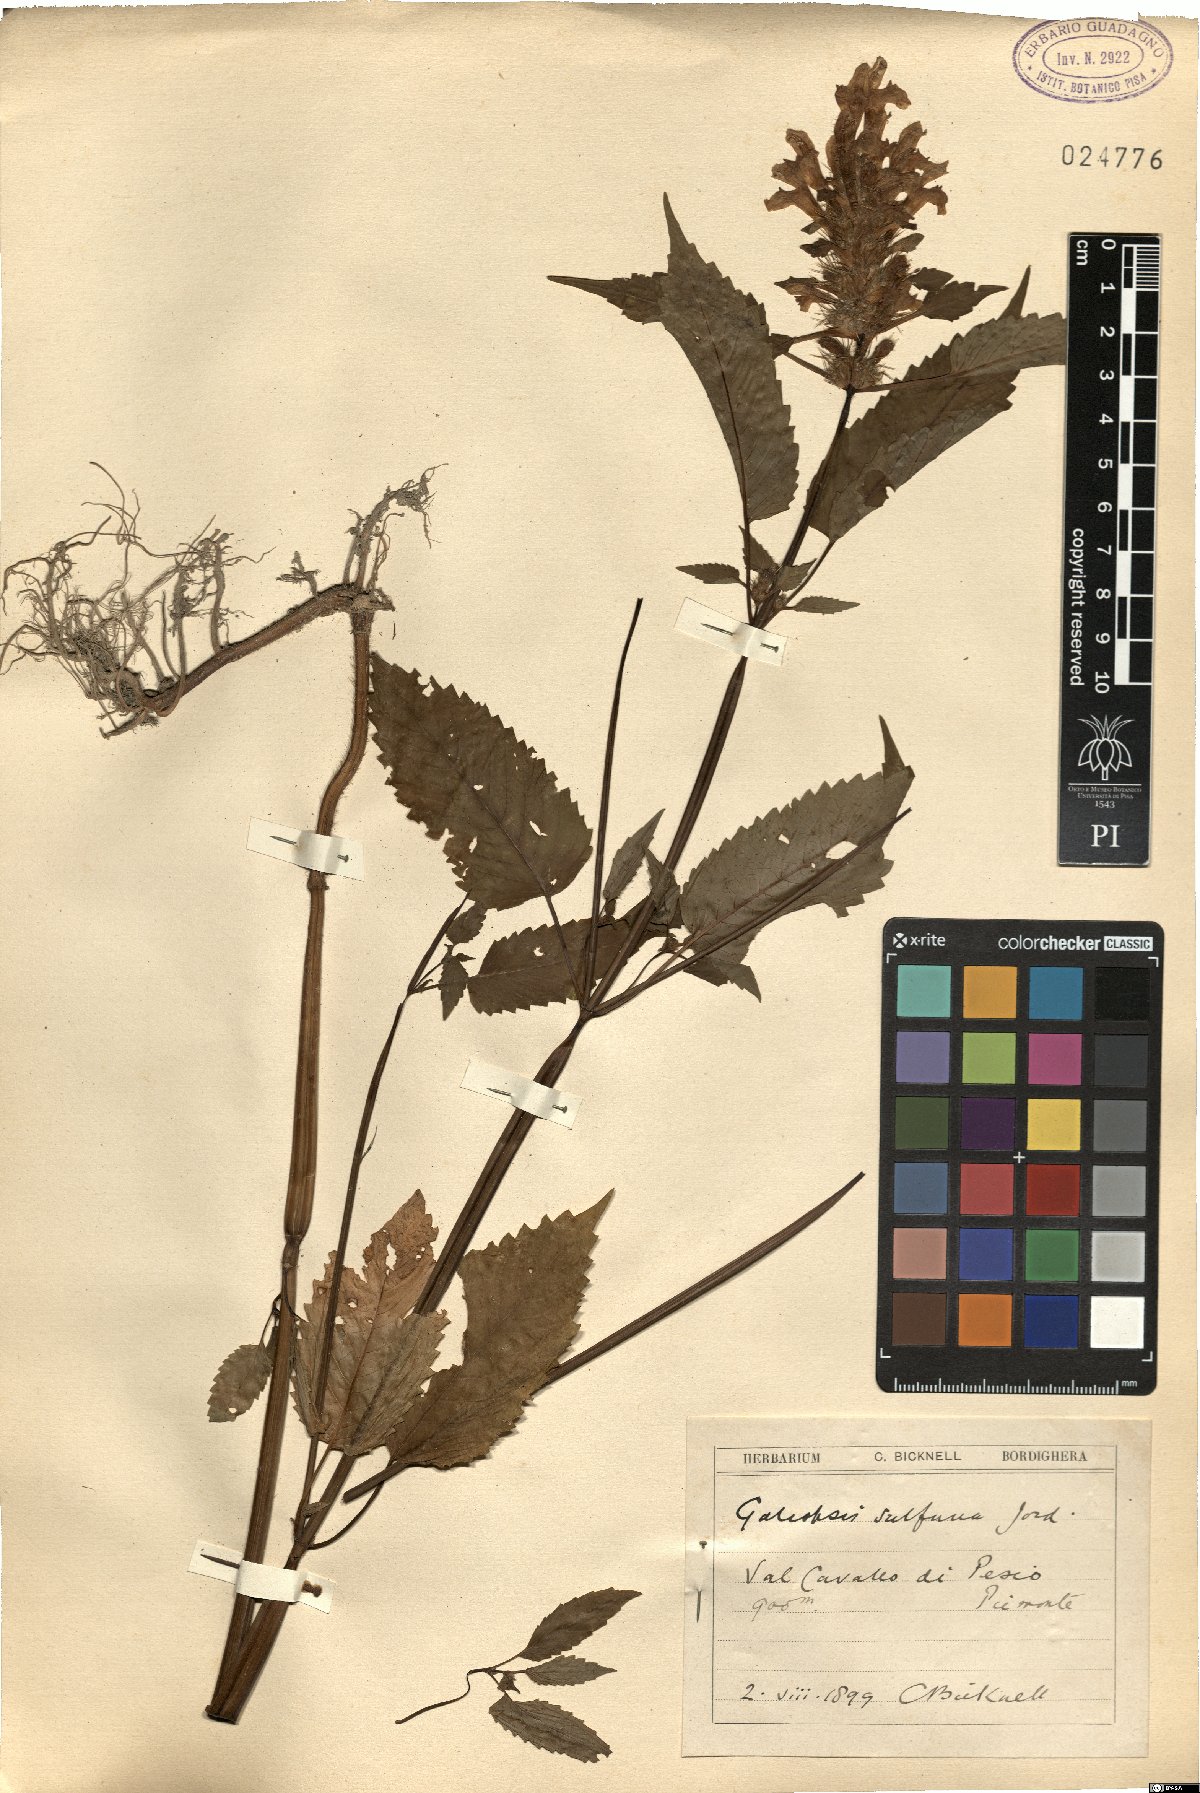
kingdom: Plantae
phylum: Tracheophyta
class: Magnoliopsida
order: Lamiales
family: Lamiaceae
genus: Galeopsis
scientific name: Galeopsis pubescens
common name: Downy hemp-nettle
